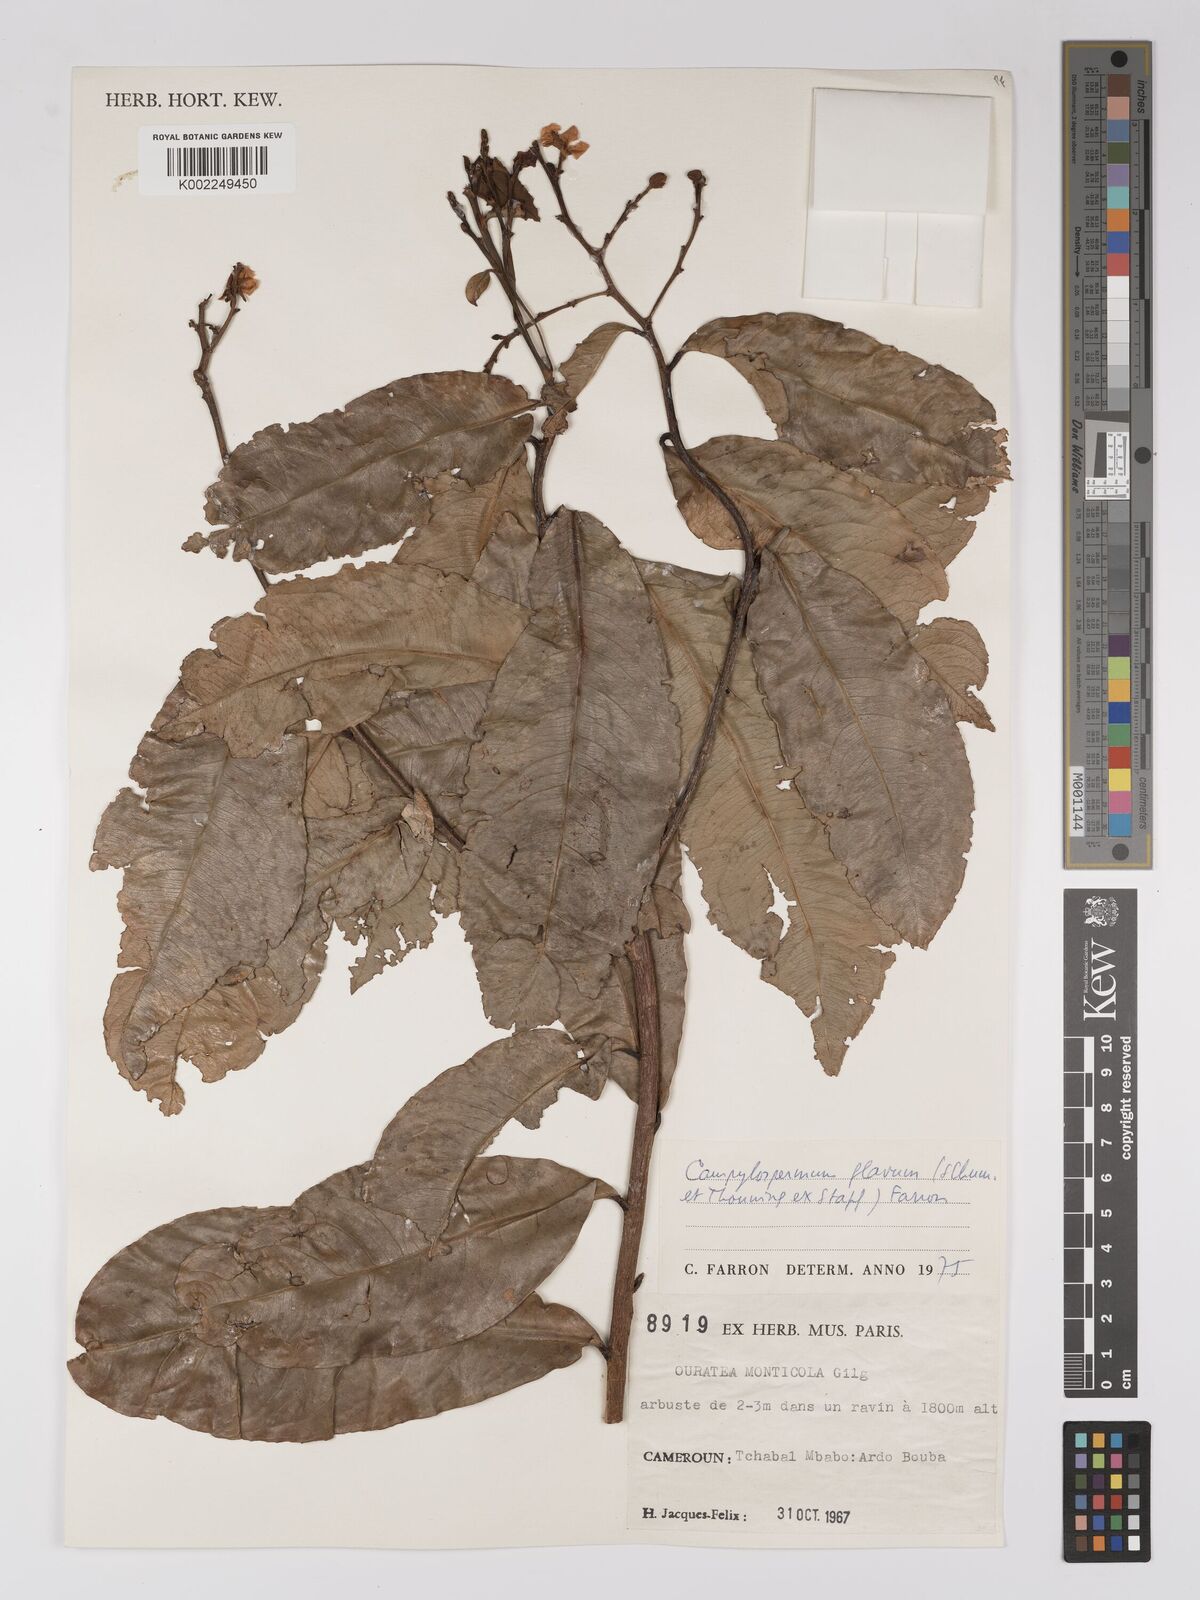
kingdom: Plantae
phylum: Tracheophyta
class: Magnoliopsida
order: Malpighiales
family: Ochnaceae
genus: Campylospermum
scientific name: Campylospermum flavum
